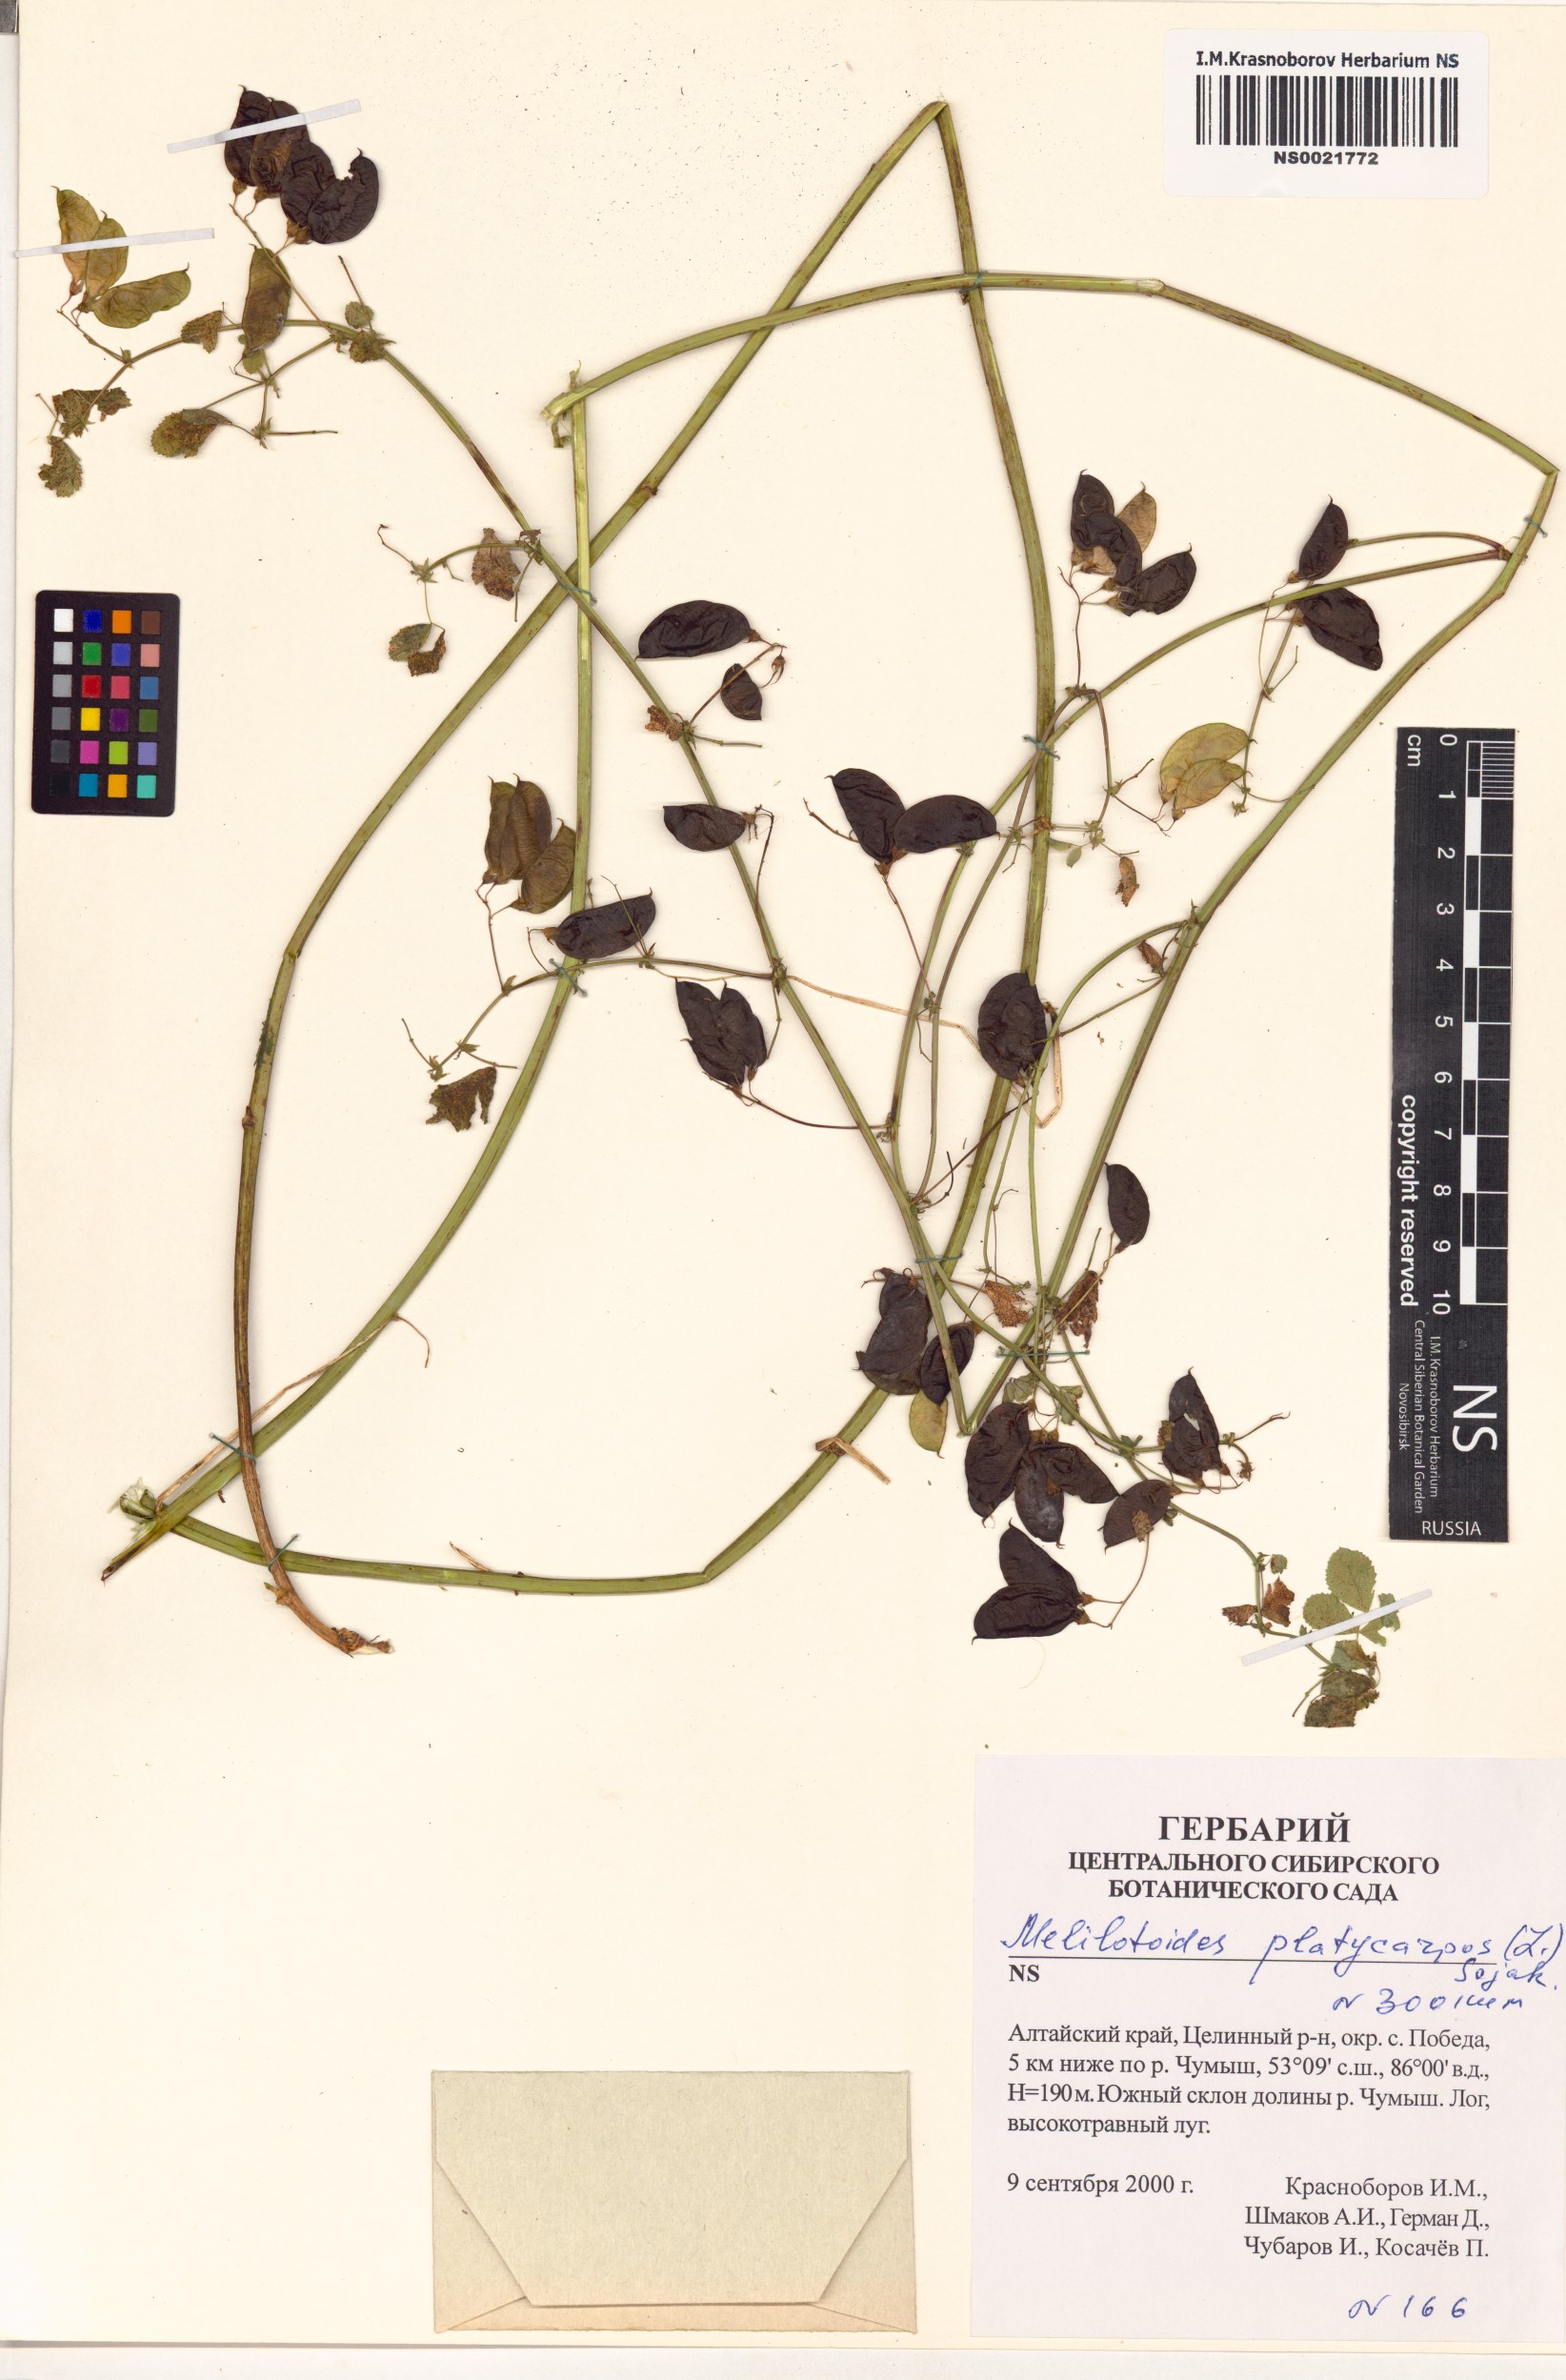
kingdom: Plantae
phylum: Tracheophyta
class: Magnoliopsida
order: Fabales
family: Fabaceae
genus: Medicago
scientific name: Medicago platycarpos
